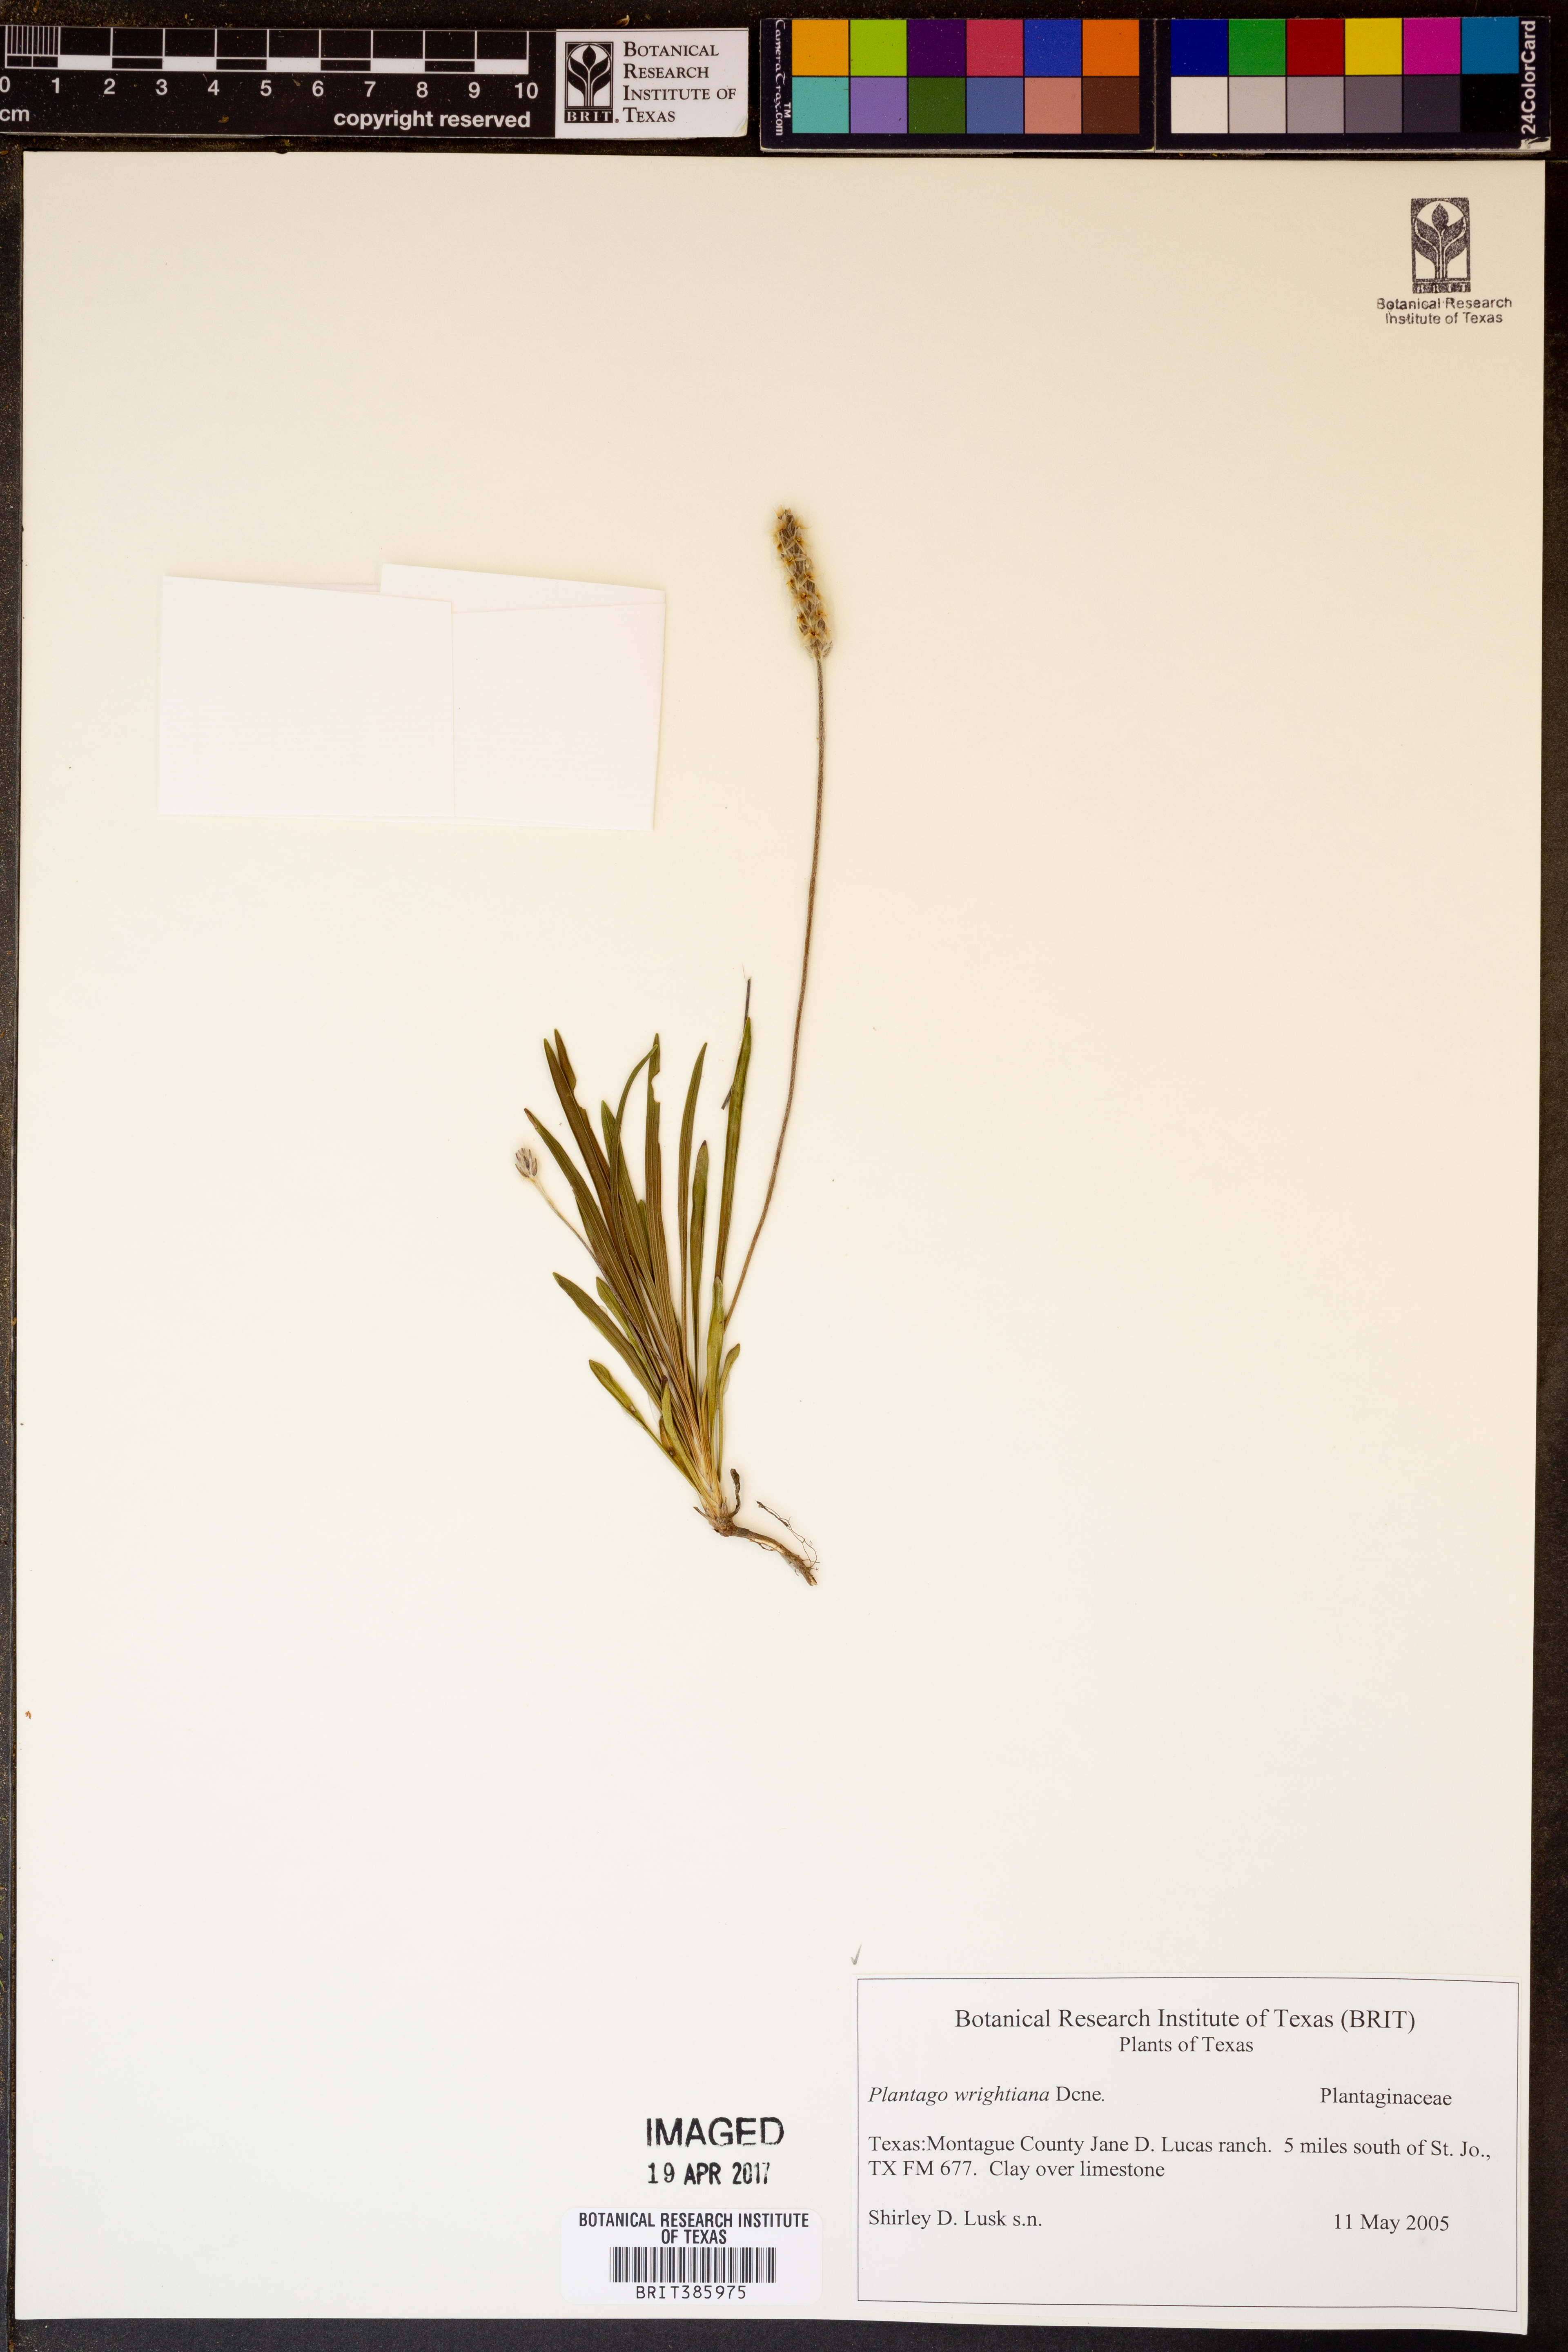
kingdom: Plantae
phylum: Tracheophyta
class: Magnoliopsida
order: Lamiales
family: Plantaginaceae
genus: Plantago
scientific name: Plantago wrightiana
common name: Wright's plantain
